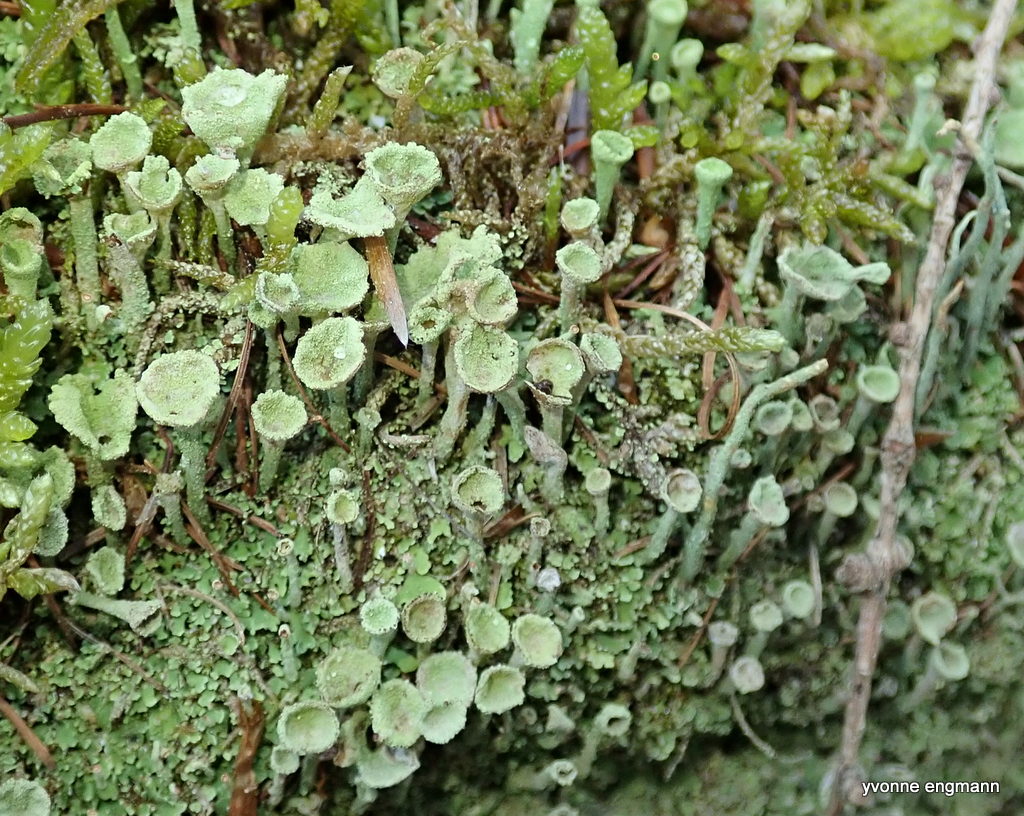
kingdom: Fungi
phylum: Ascomycota
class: Lecanoromycetes
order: Lecanorales
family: Cladoniaceae
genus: Cladonia
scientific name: Cladonia fimbriata
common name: bleggrøn bægerlav
